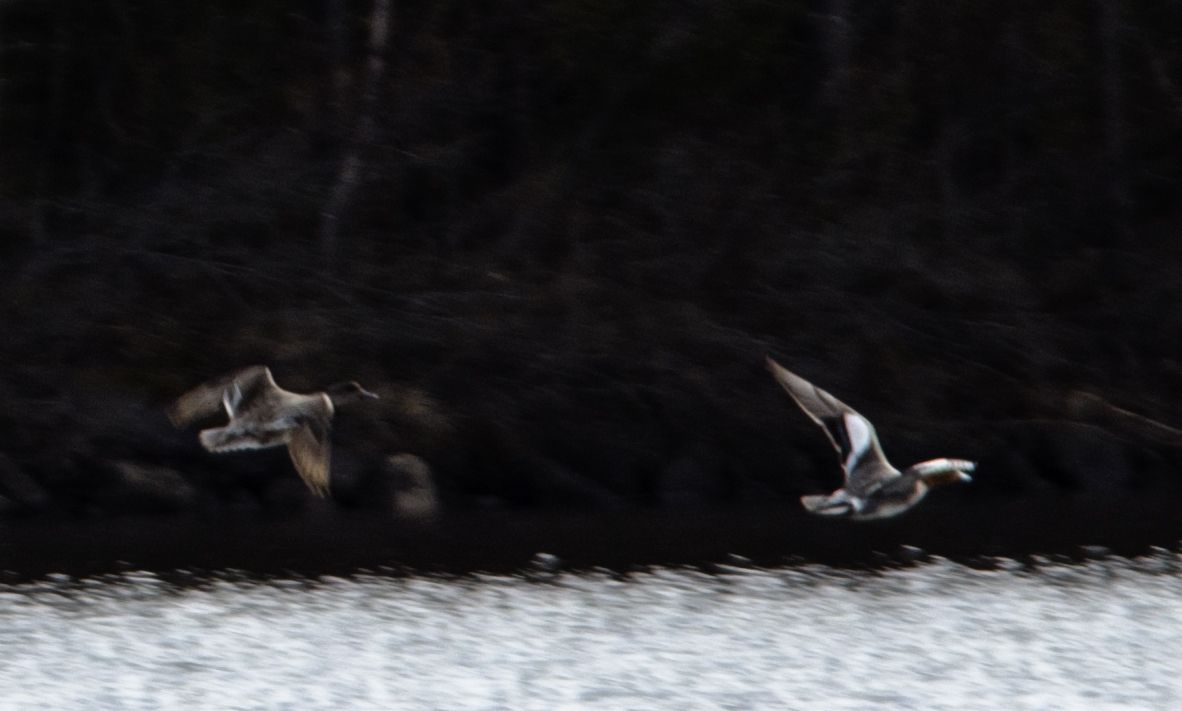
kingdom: Animalia
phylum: Chordata
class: Aves
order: Anseriformes
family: Anatidae
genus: Mareca
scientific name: Mareca penelope
